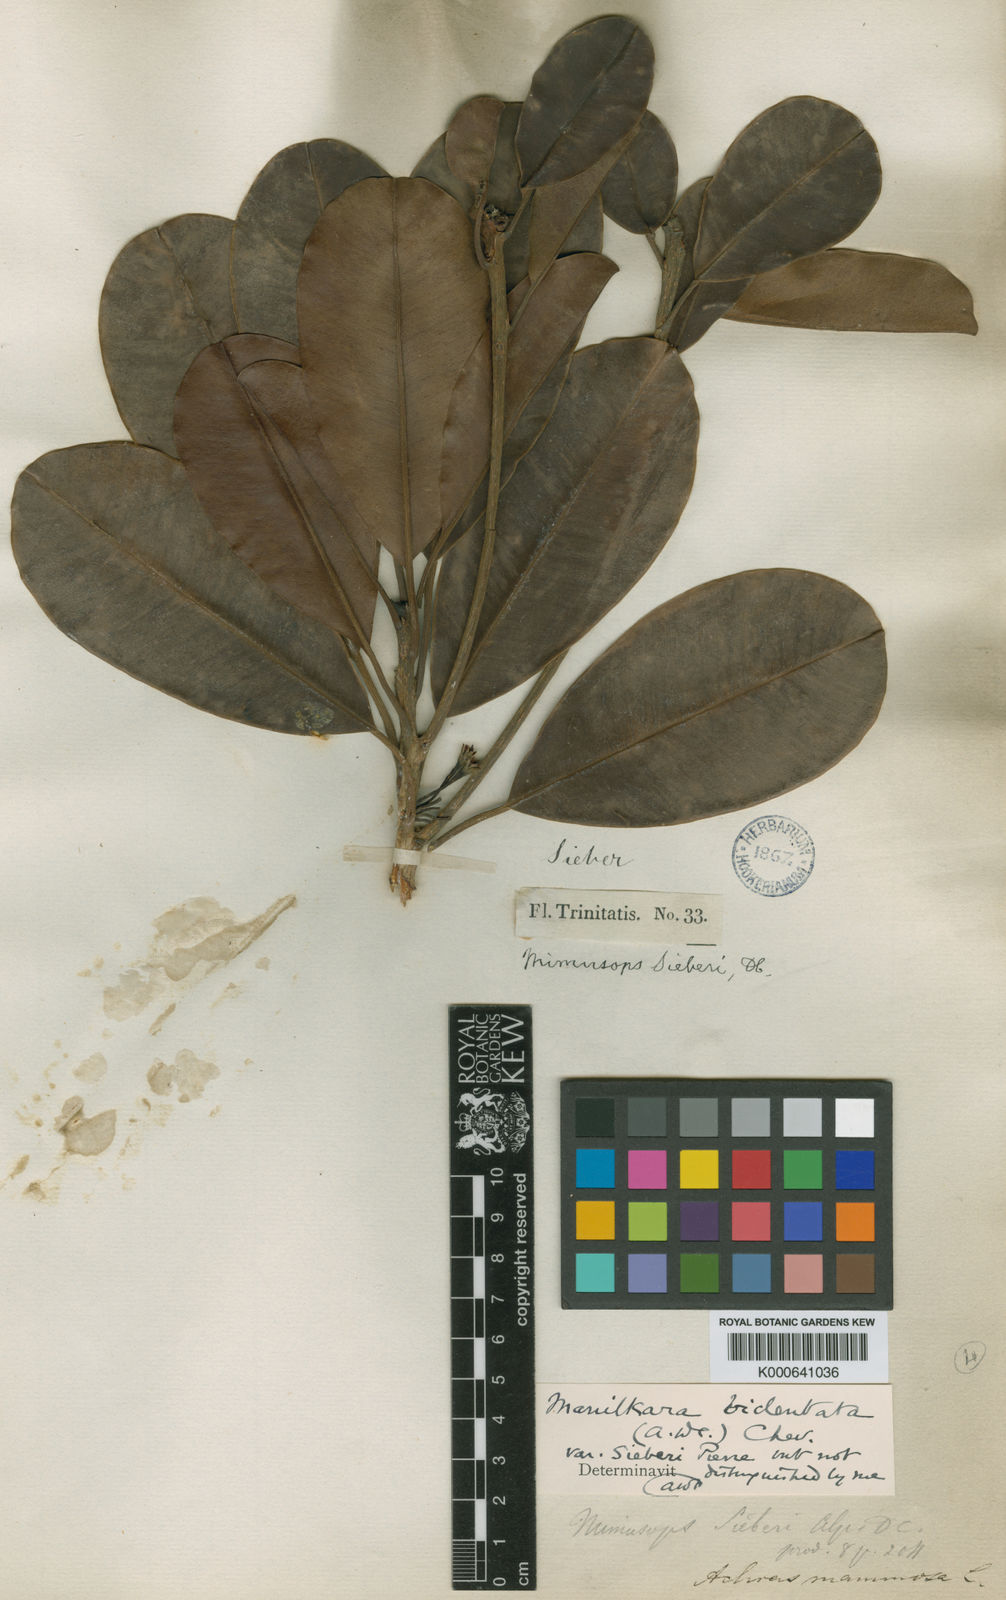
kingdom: Plantae
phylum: Tracheophyta
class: Magnoliopsida
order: Ericales
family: Sapotaceae
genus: Manilkara
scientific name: Manilkara bidentata
